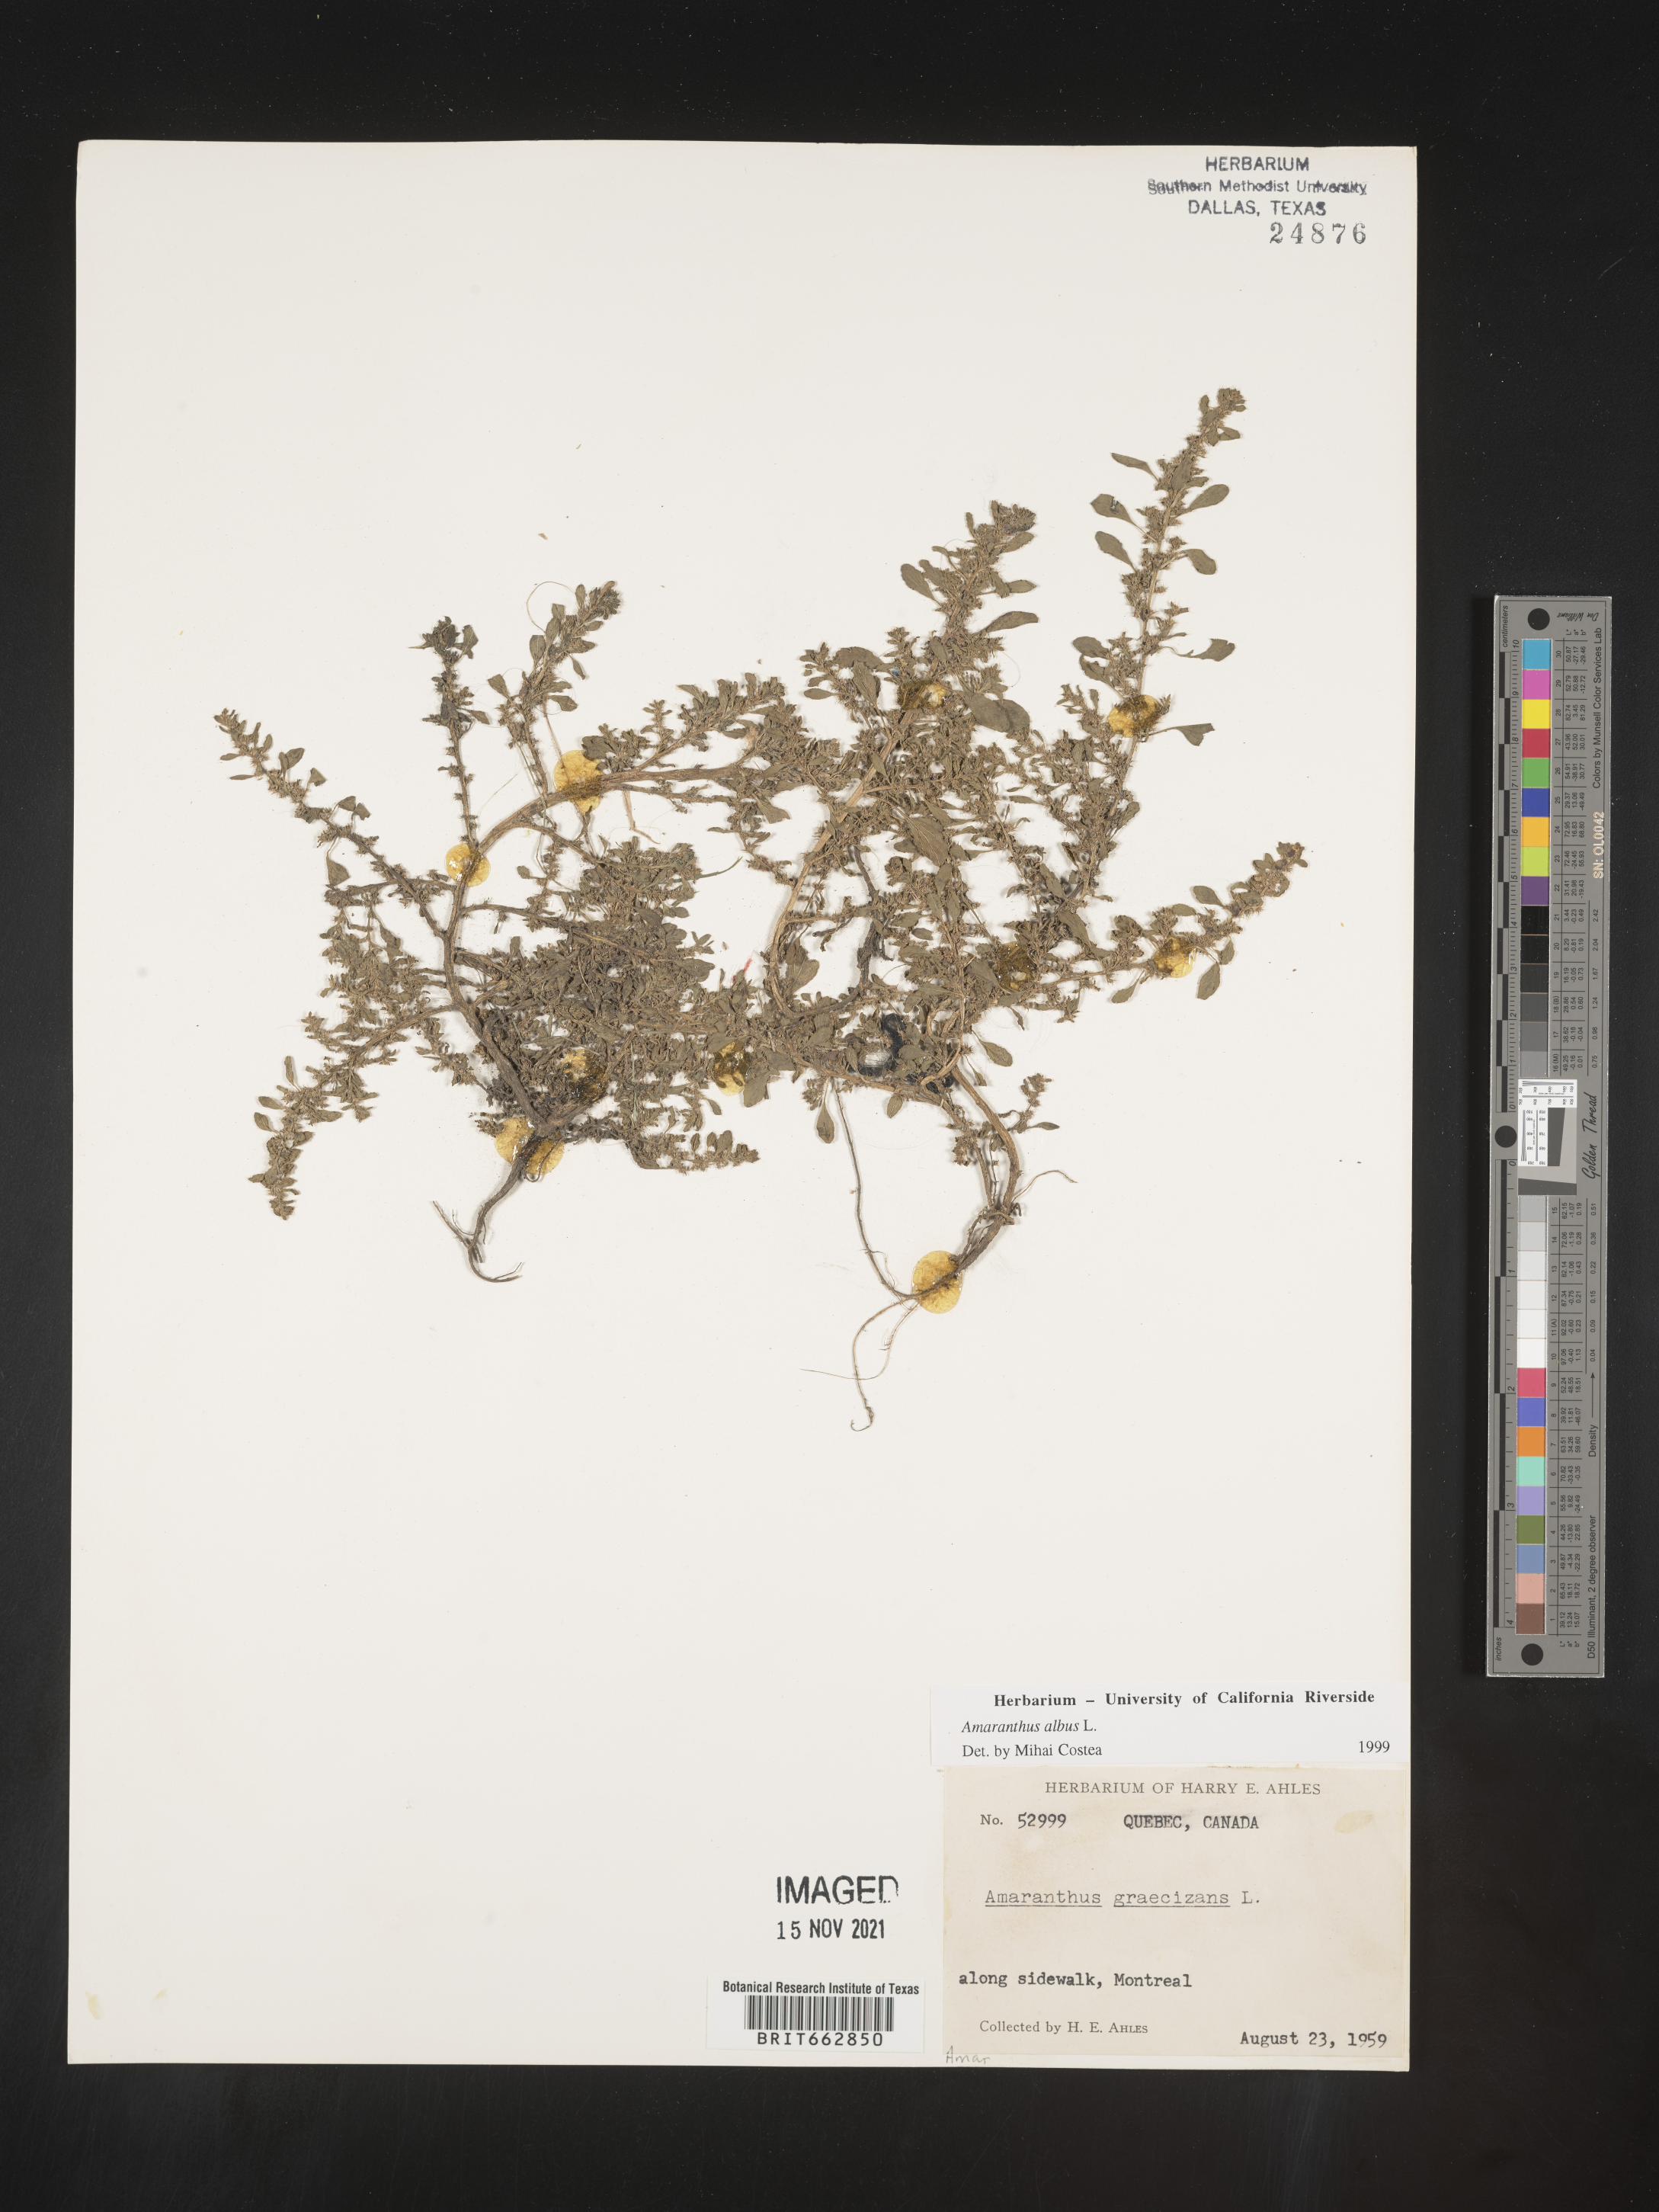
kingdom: Plantae
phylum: Tracheophyta
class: Magnoliopsida
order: Caryophyllales
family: Amaranthaceae
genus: Amaranthus
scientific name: Amaranthus albus
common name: White pigweed
